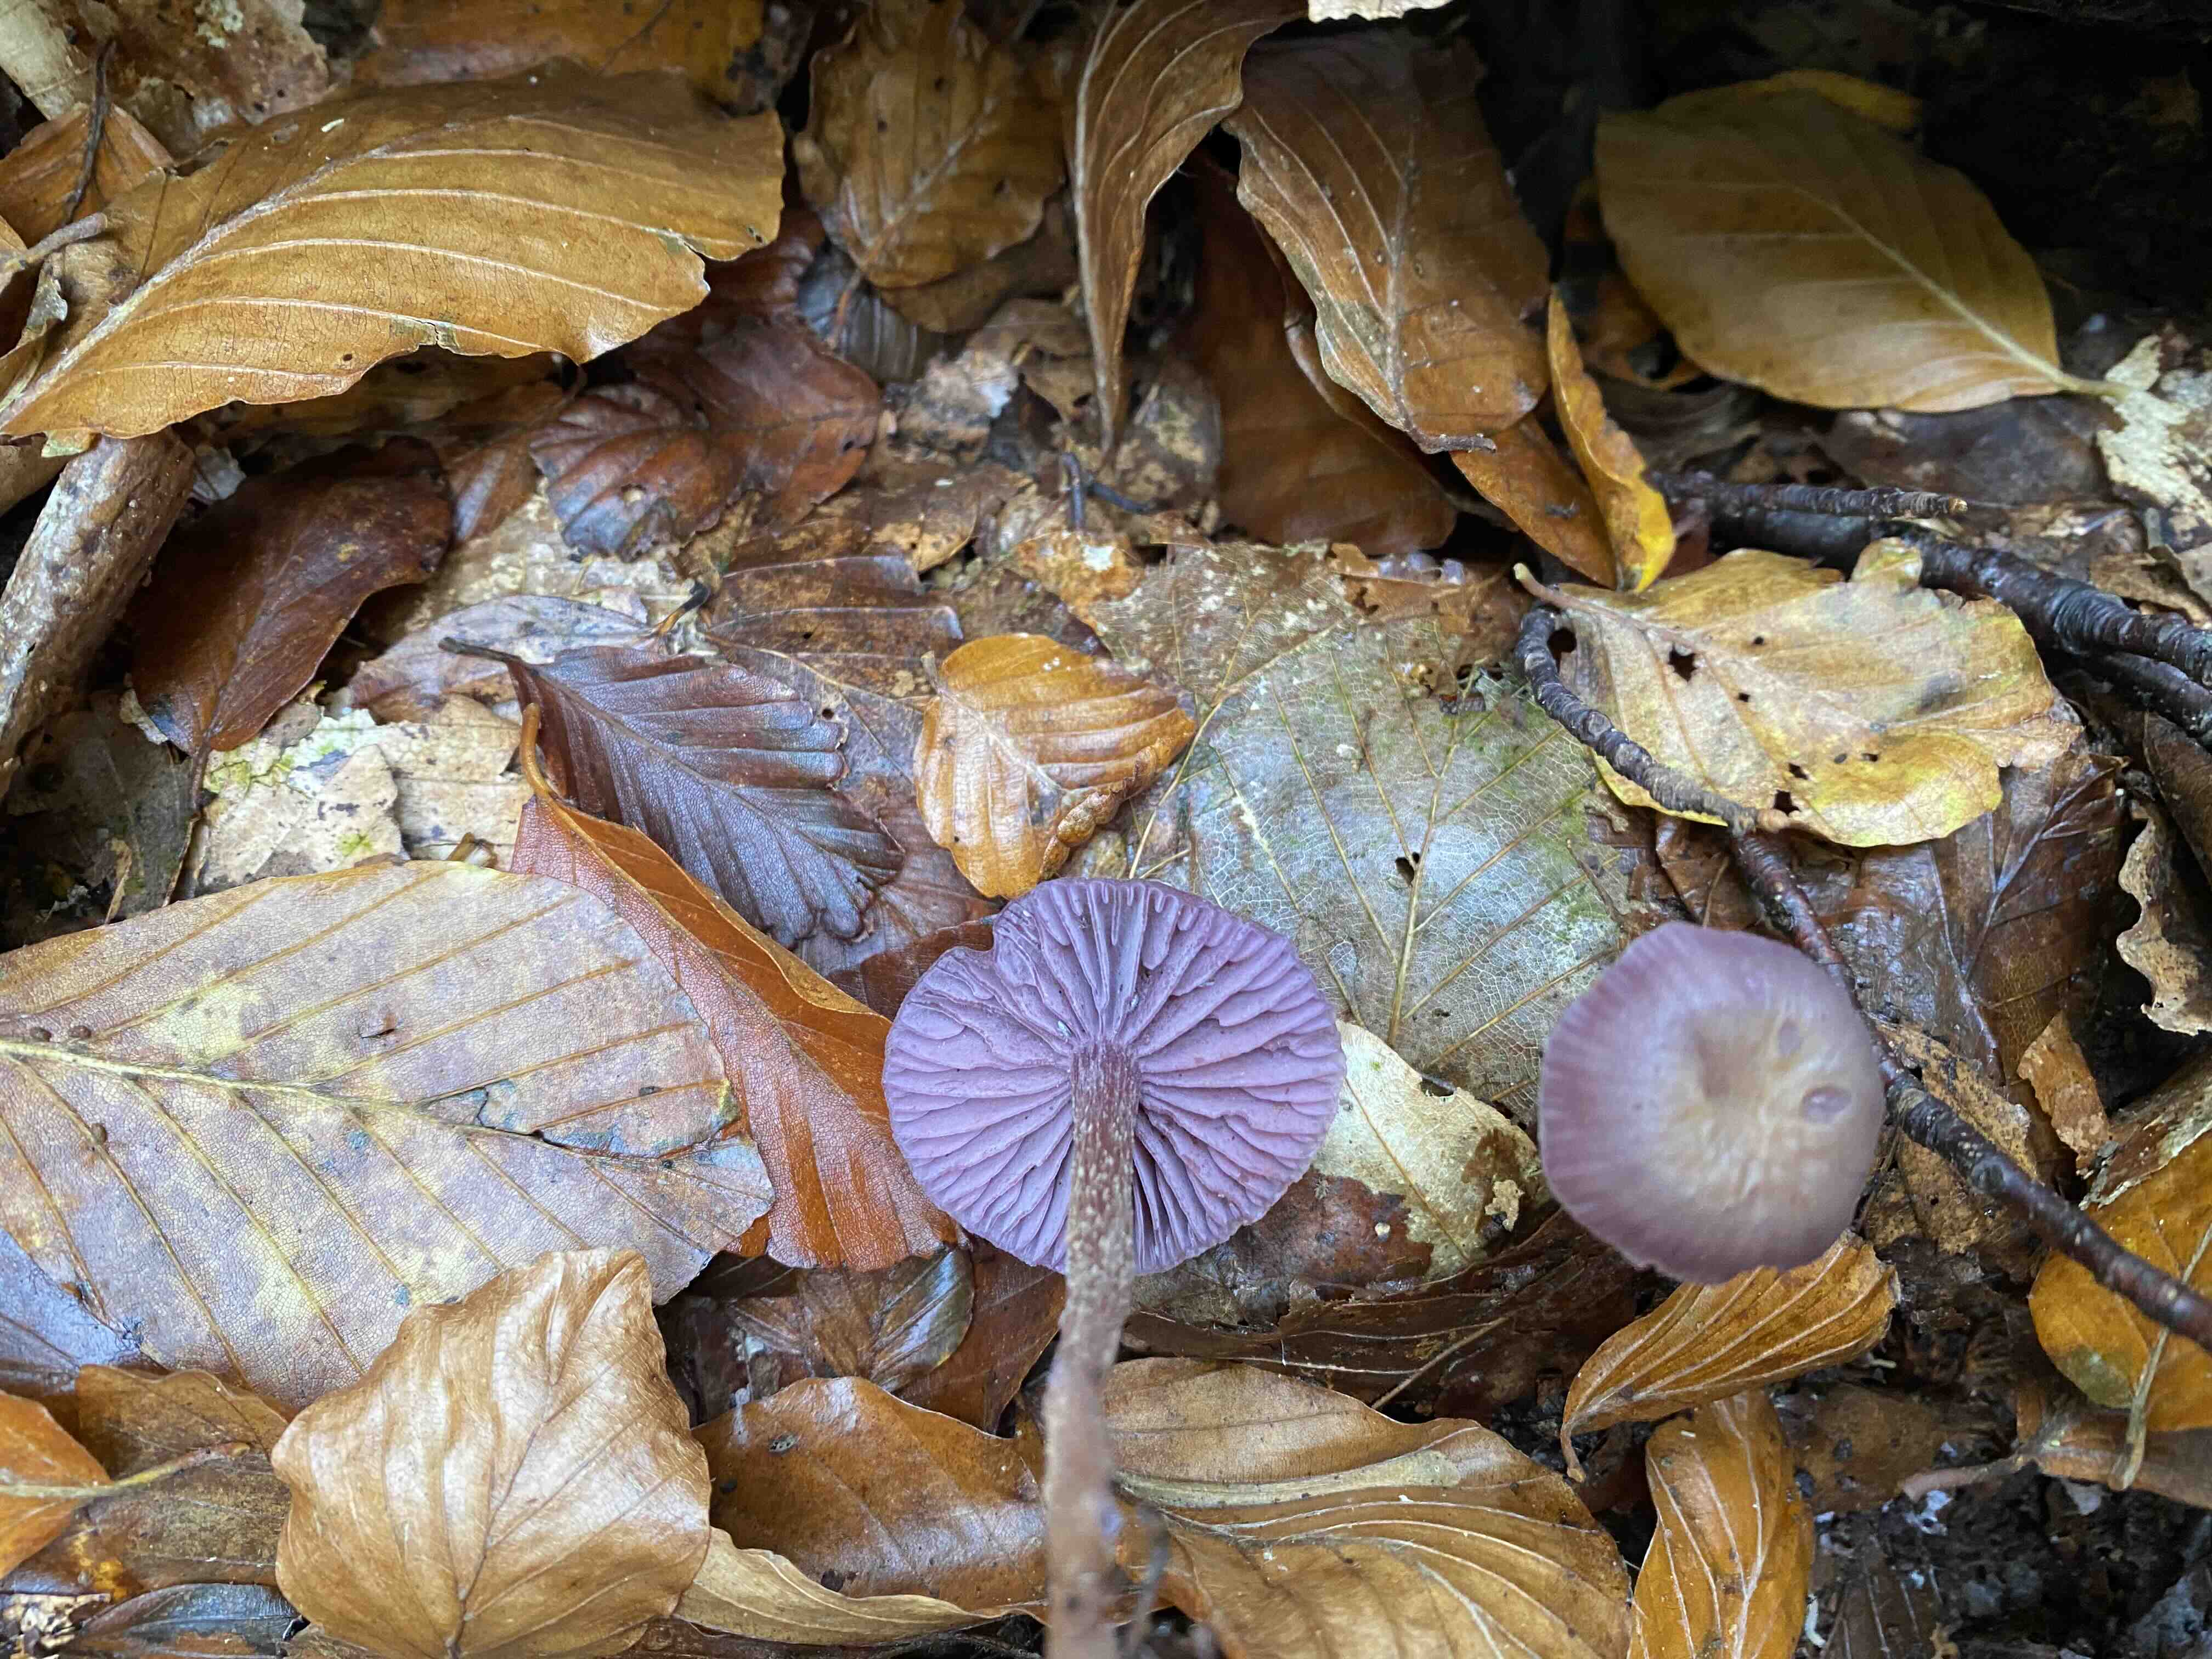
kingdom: Fungi
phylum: Basidiomycota
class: Agaricomycetes
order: Agaricales
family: Hydnangiaceae
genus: Laccaria
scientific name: Laccaria amethystina
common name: violet ametysthat
